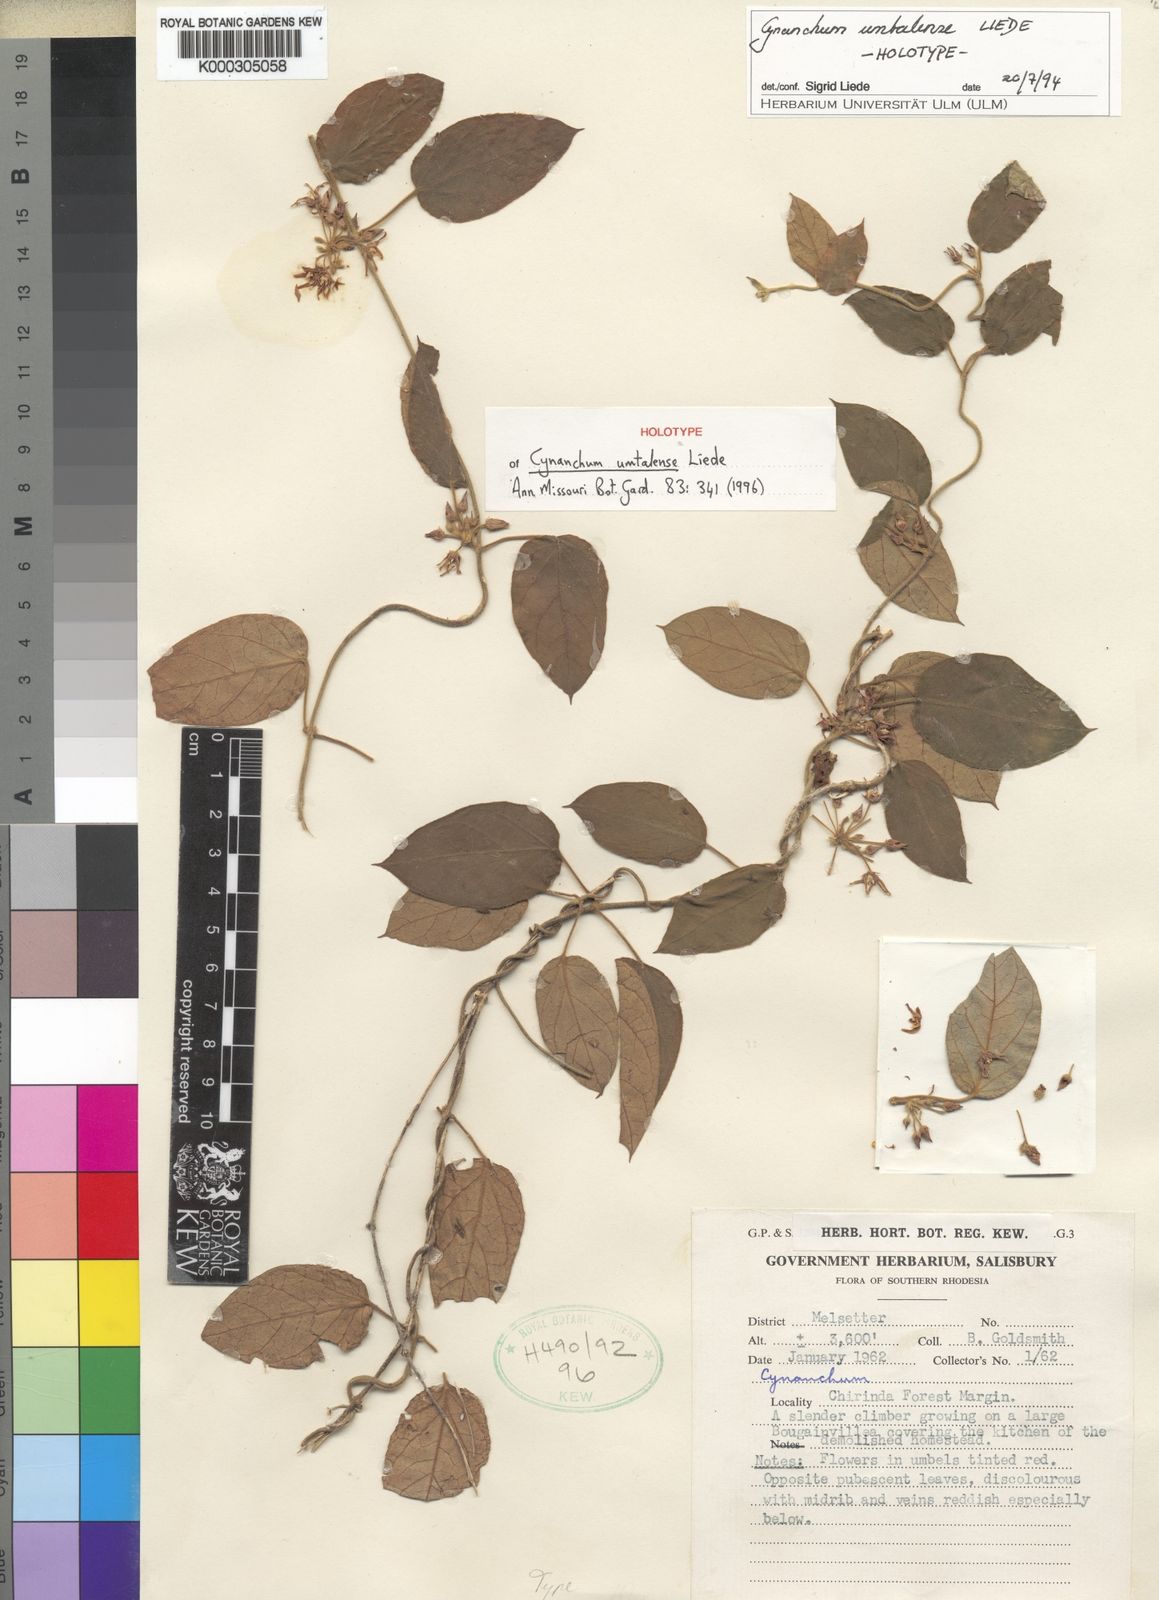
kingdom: Plantae
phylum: Tracheophyta
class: Magnoliopsida
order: Gentianales
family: Apocynaceae
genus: Cynanchum
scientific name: Cynanchum umtalense
